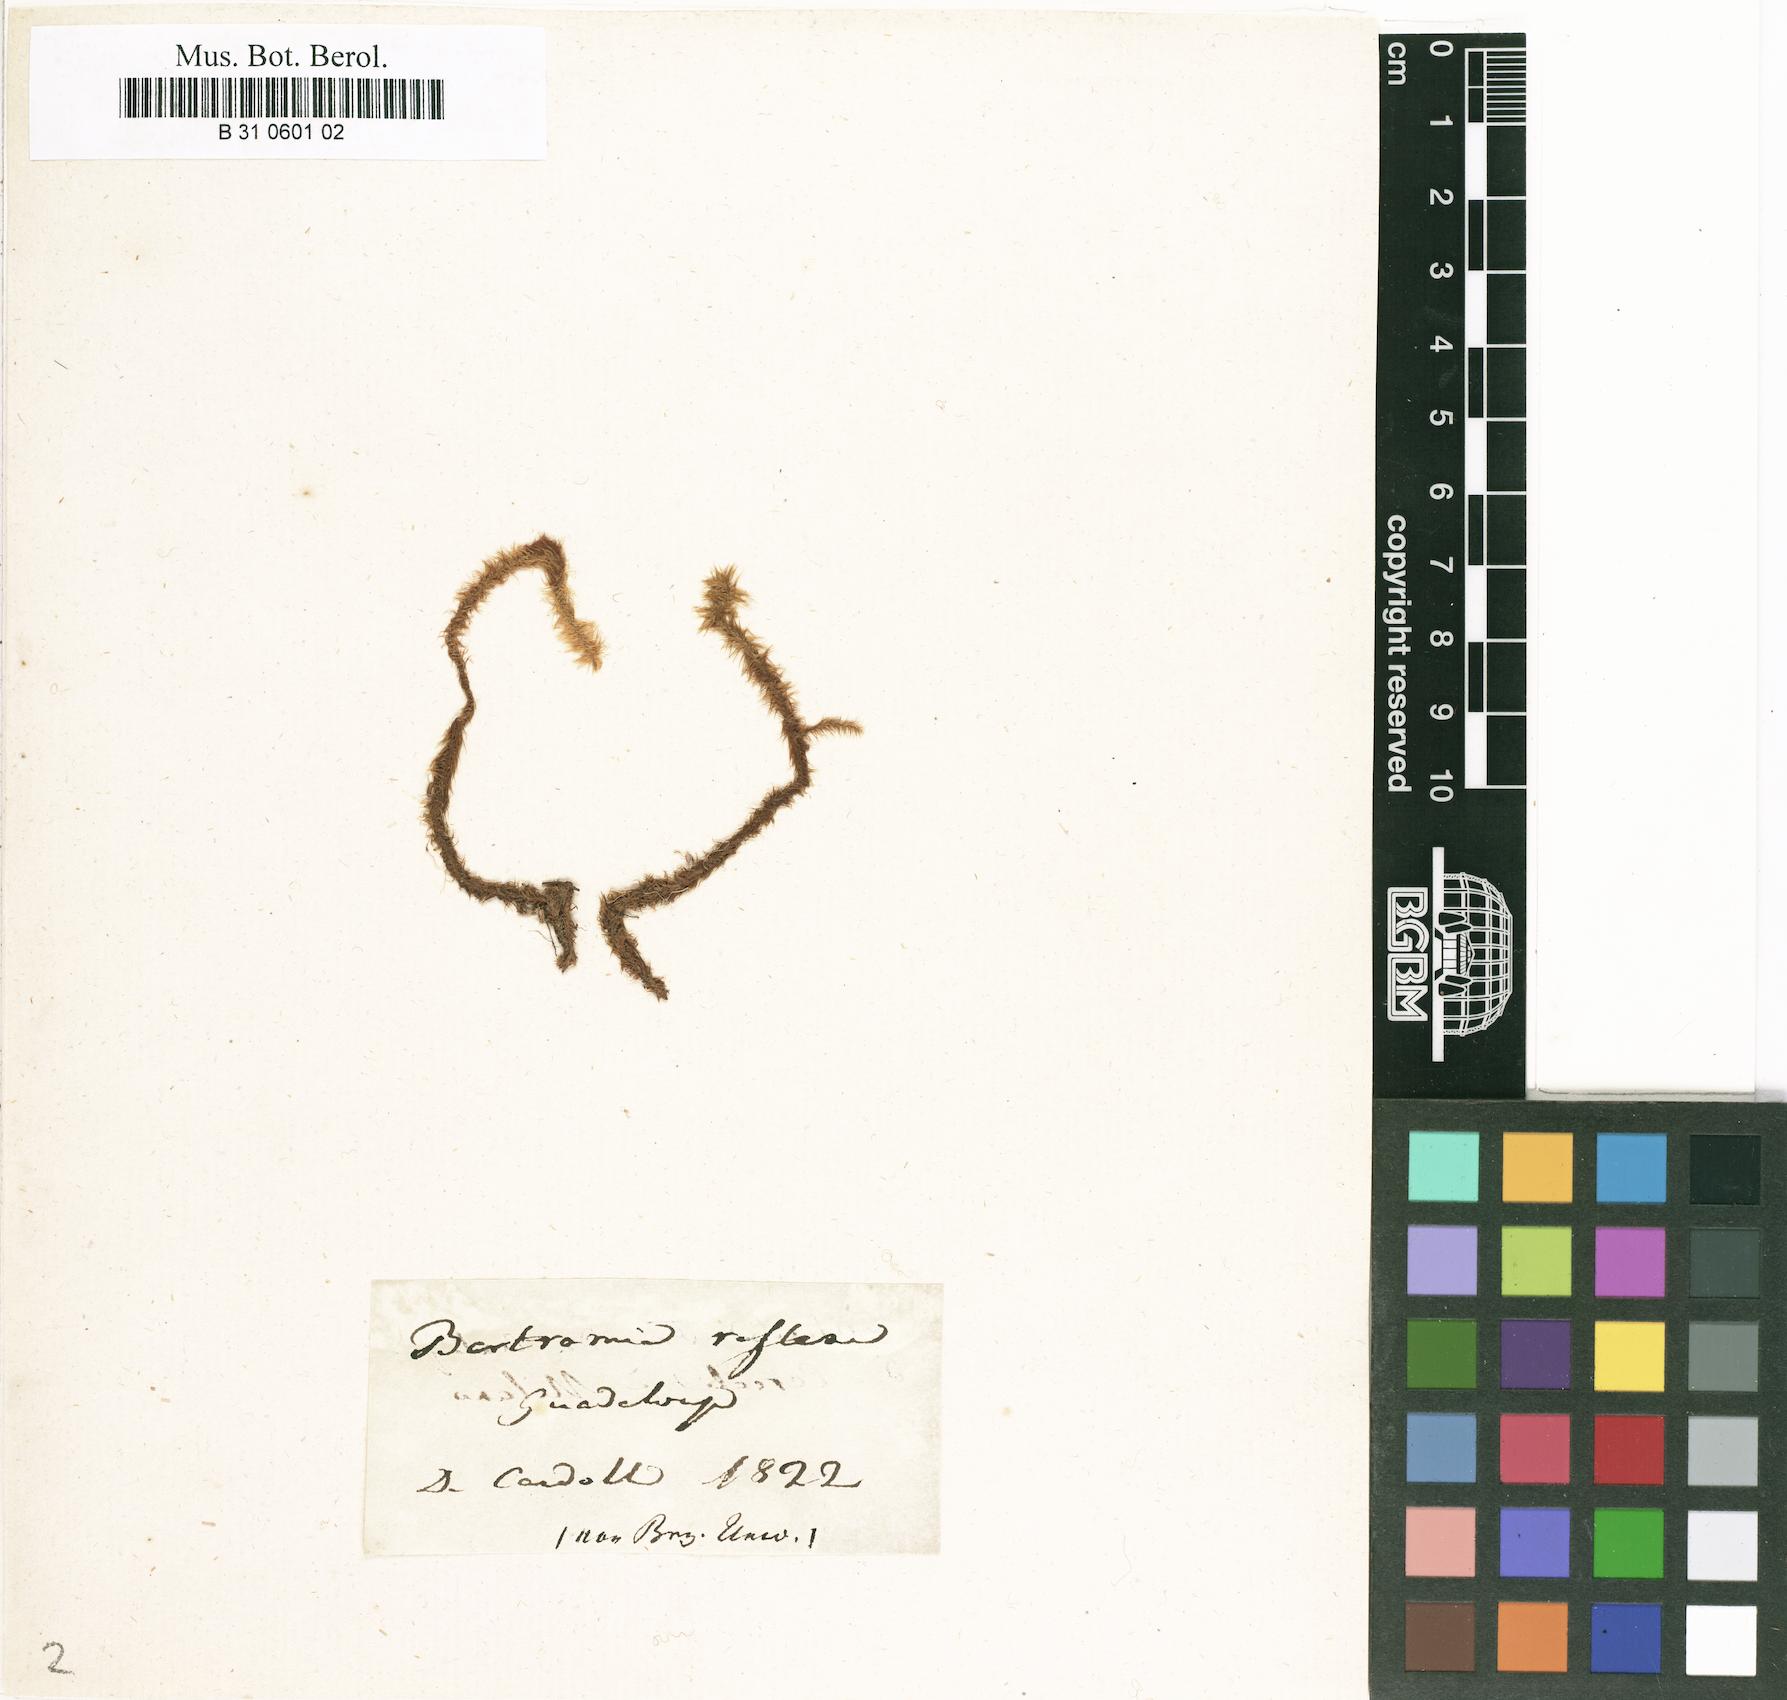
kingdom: Plantae
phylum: Bryophyta
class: Bryopsida
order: Bartramiales
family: Bartramiaceae
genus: Breutelia
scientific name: Breutelia chrysocoma
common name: Bottle-brush moss
